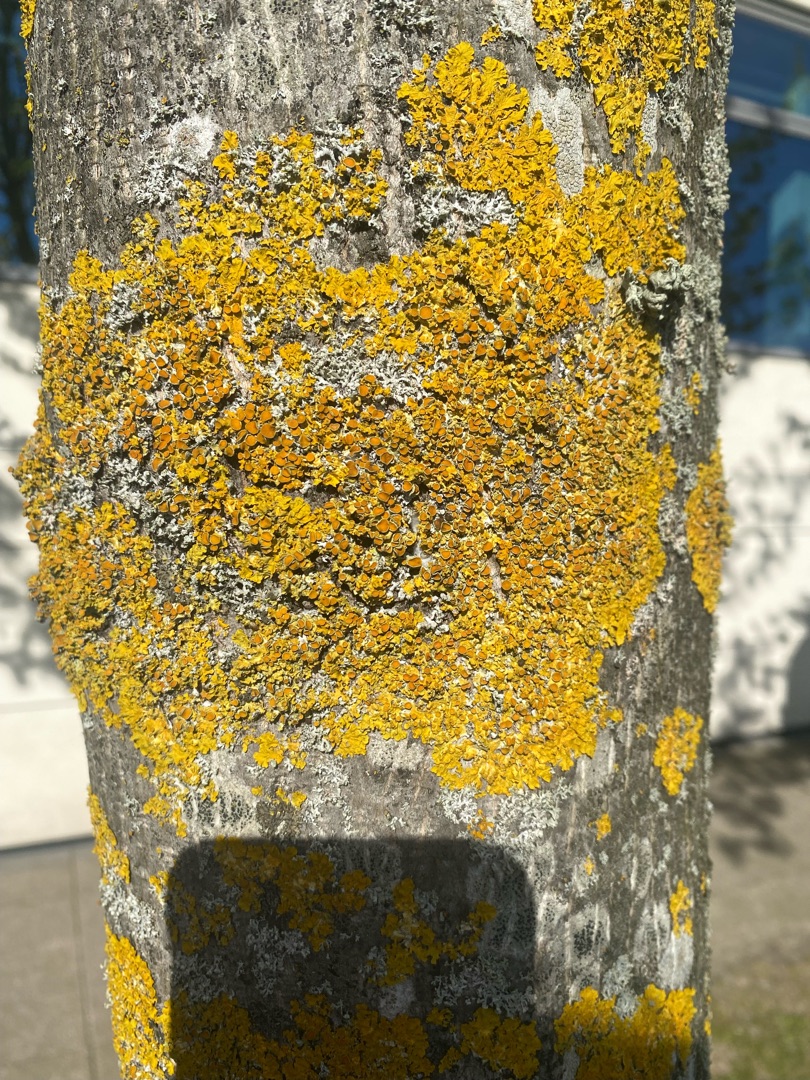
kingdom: Fungi
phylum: Ascomycota
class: Lecanoromycetes
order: Teloschistales
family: Teloschistaceae
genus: Xanthoria
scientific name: Xanthoria parietina
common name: Almindelig væggelav
